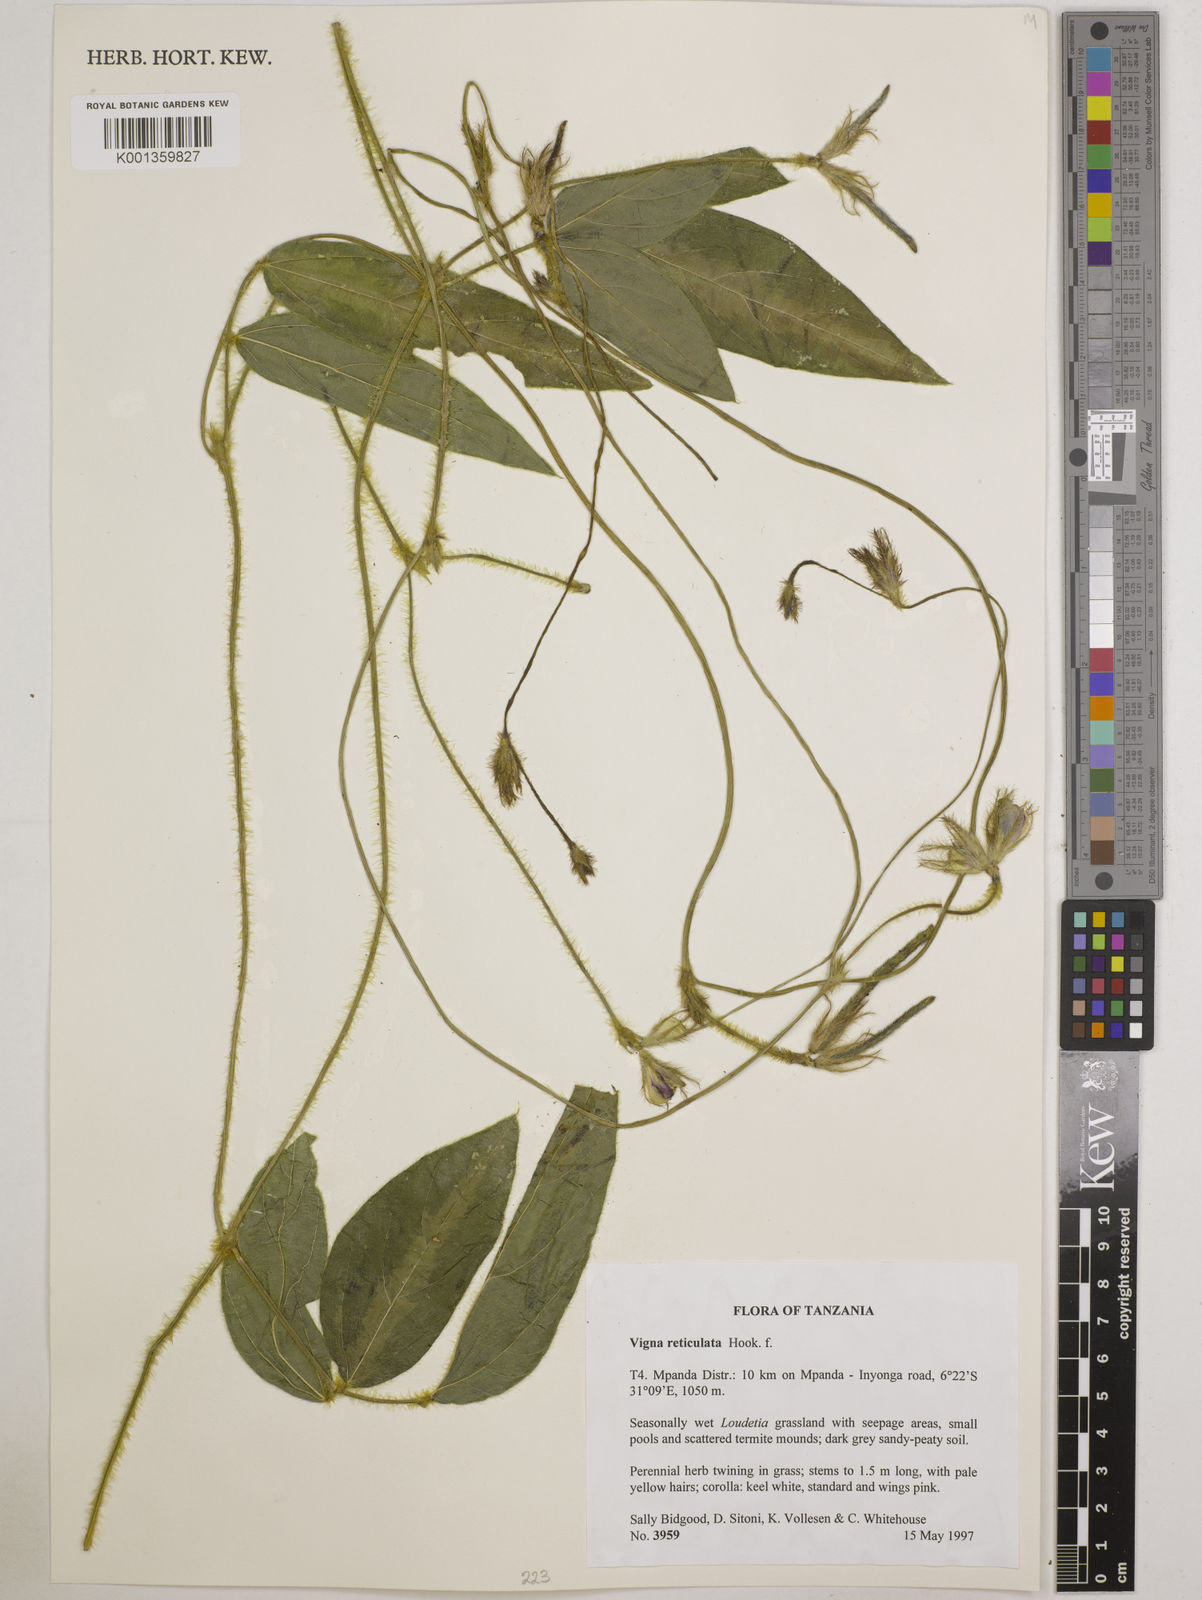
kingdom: Plantae
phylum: Tracheophyta
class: Magnoliopsida
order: Fabales
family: Fabaceae
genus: Vigna
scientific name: Vigna reticulata
